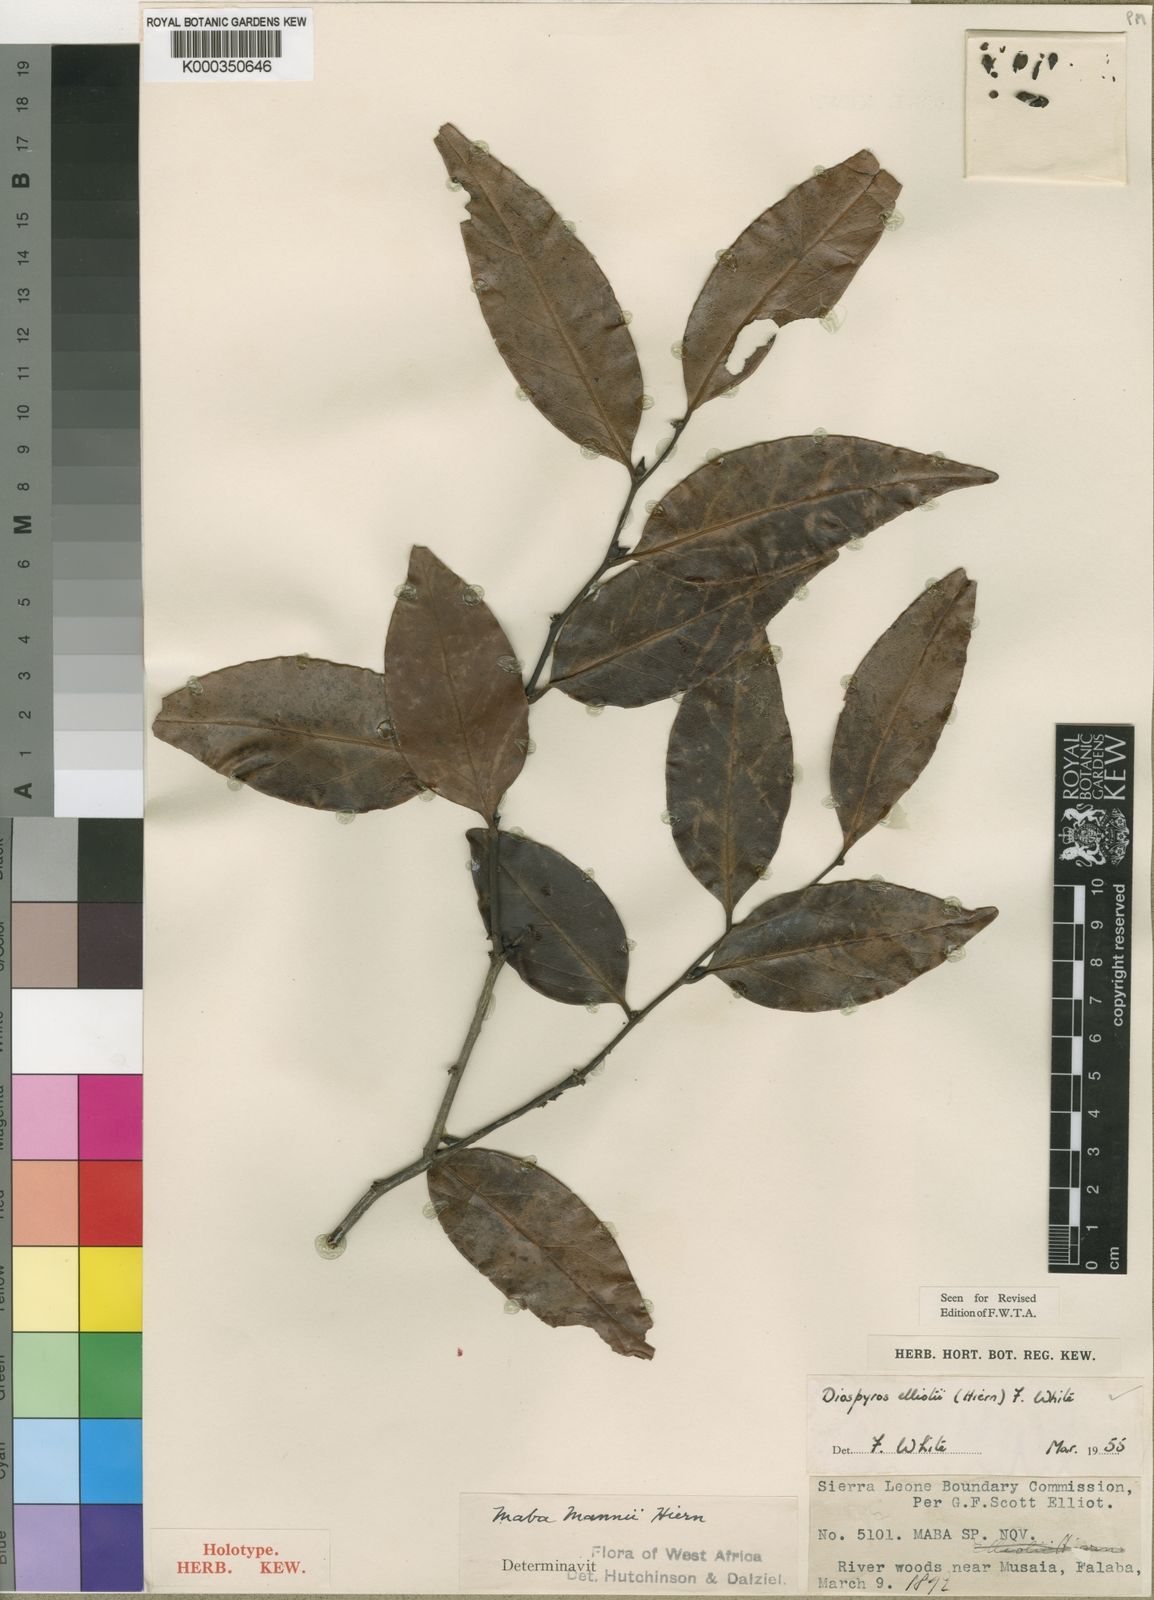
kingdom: Plantae
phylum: Tracheophyta
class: Magnoliopsida
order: Ericales
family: Ebenaceae
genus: Diospyros
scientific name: Diospyros elliotii
